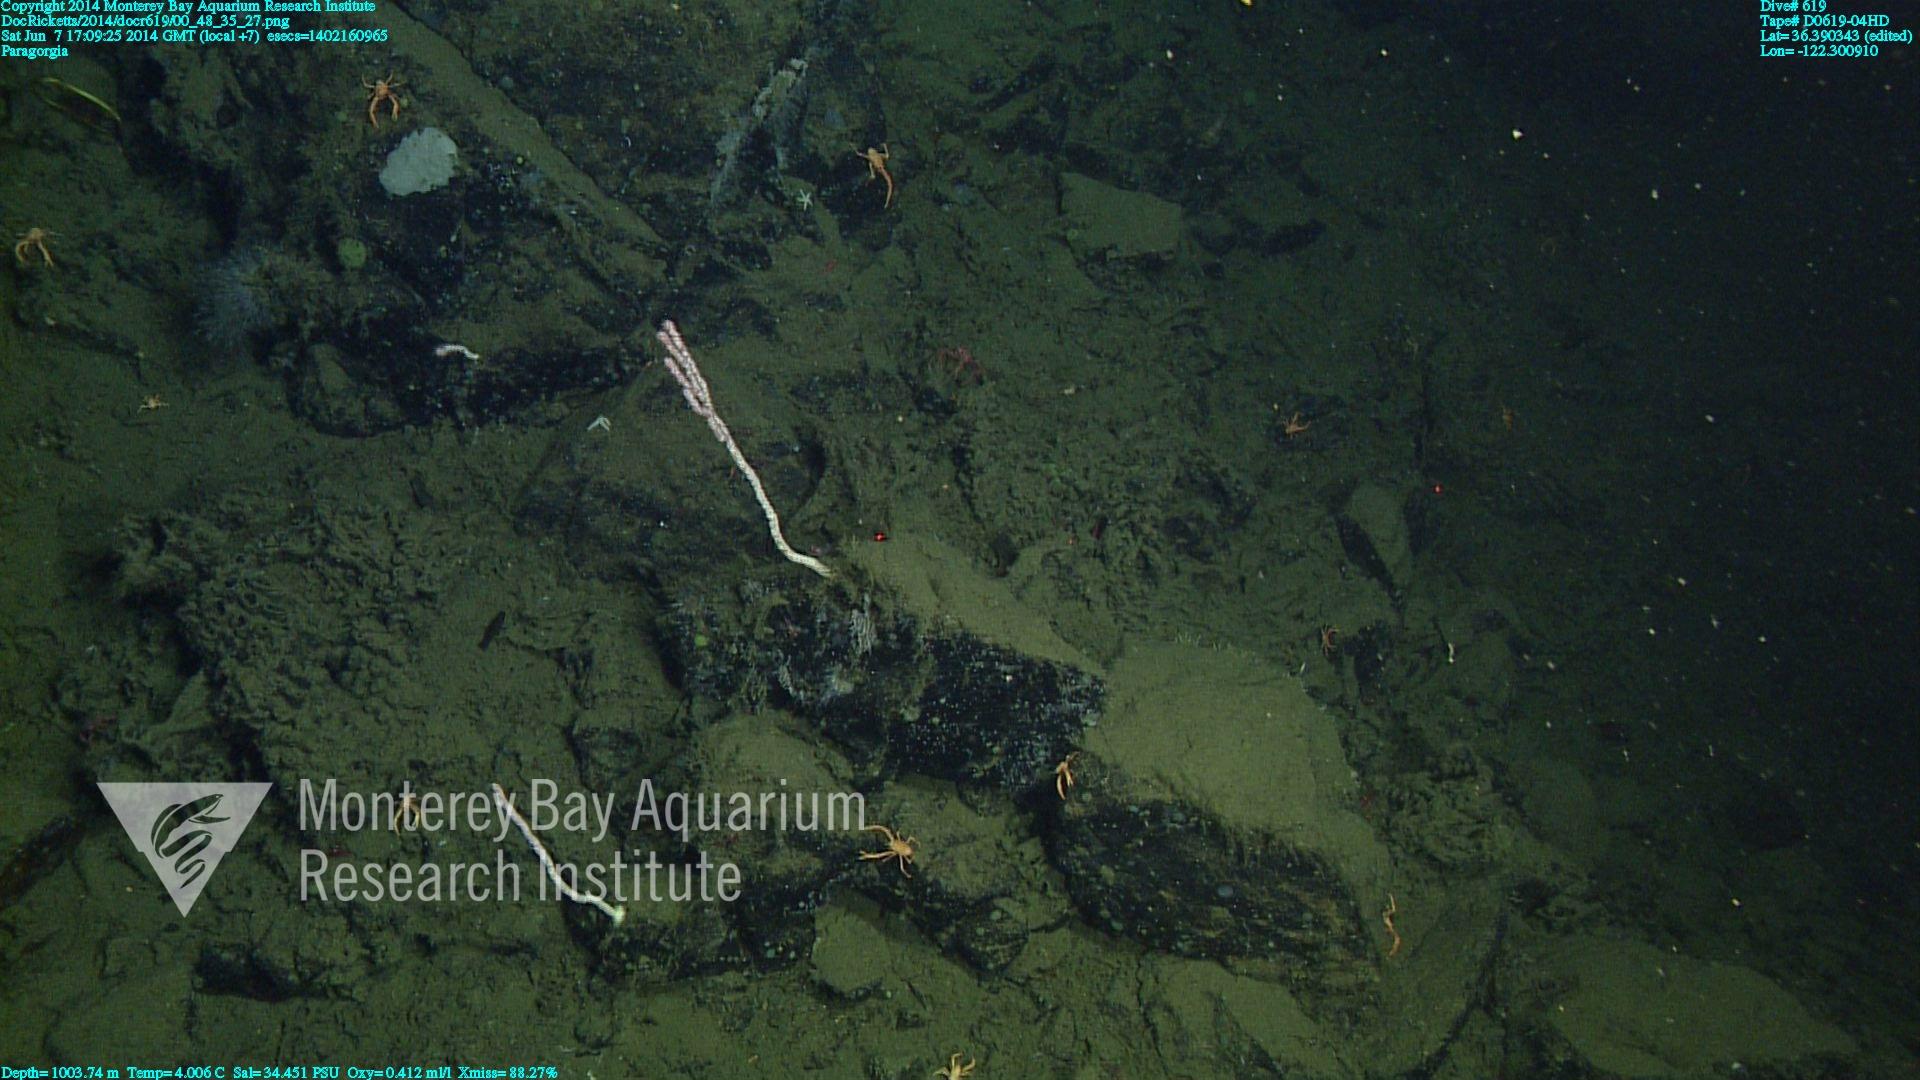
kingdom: Animalia
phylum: Cnidaria
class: Anthozoa
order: Scleralcyonacea
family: Coralliidae
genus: Paragorgia
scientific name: Paragorgia
